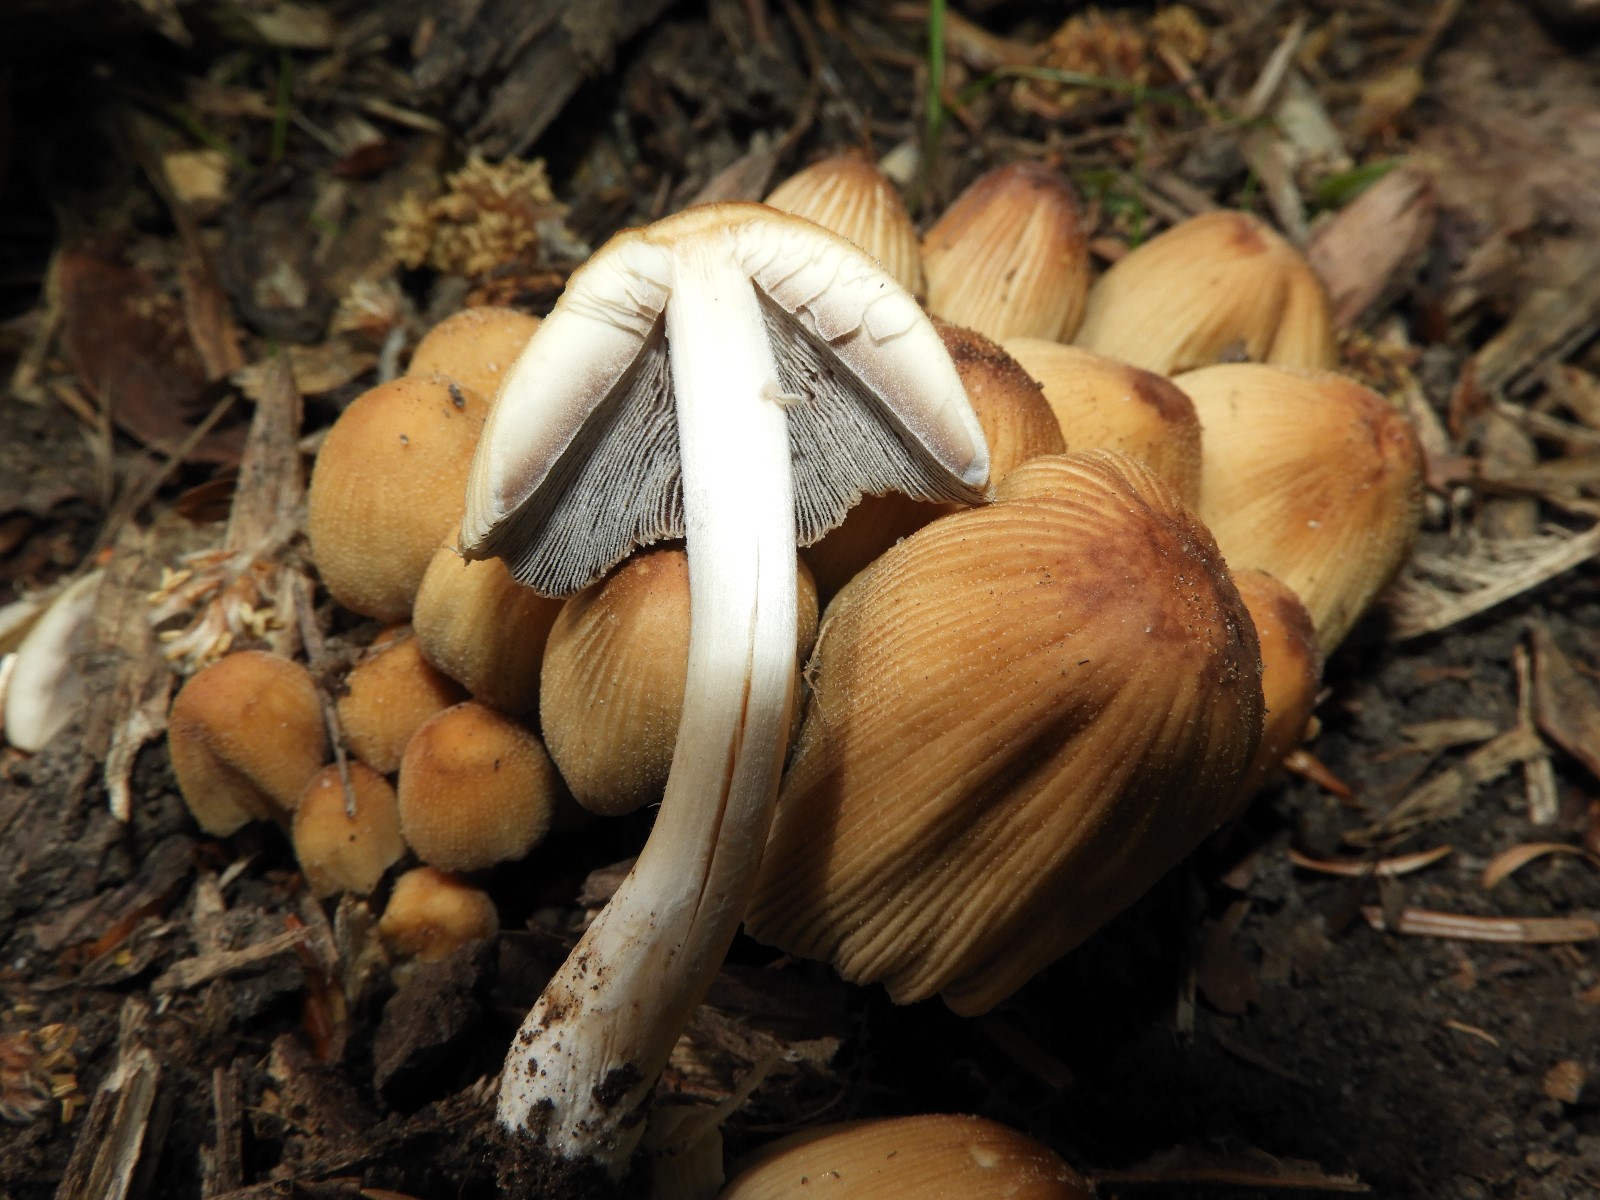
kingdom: Fungi
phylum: Basidiomycota
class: Agaricomycetes
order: Agaricales
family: Psathyrellaceae
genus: Coprinellus
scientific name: Coprinellus micaceus
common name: glimmer-blækhat
